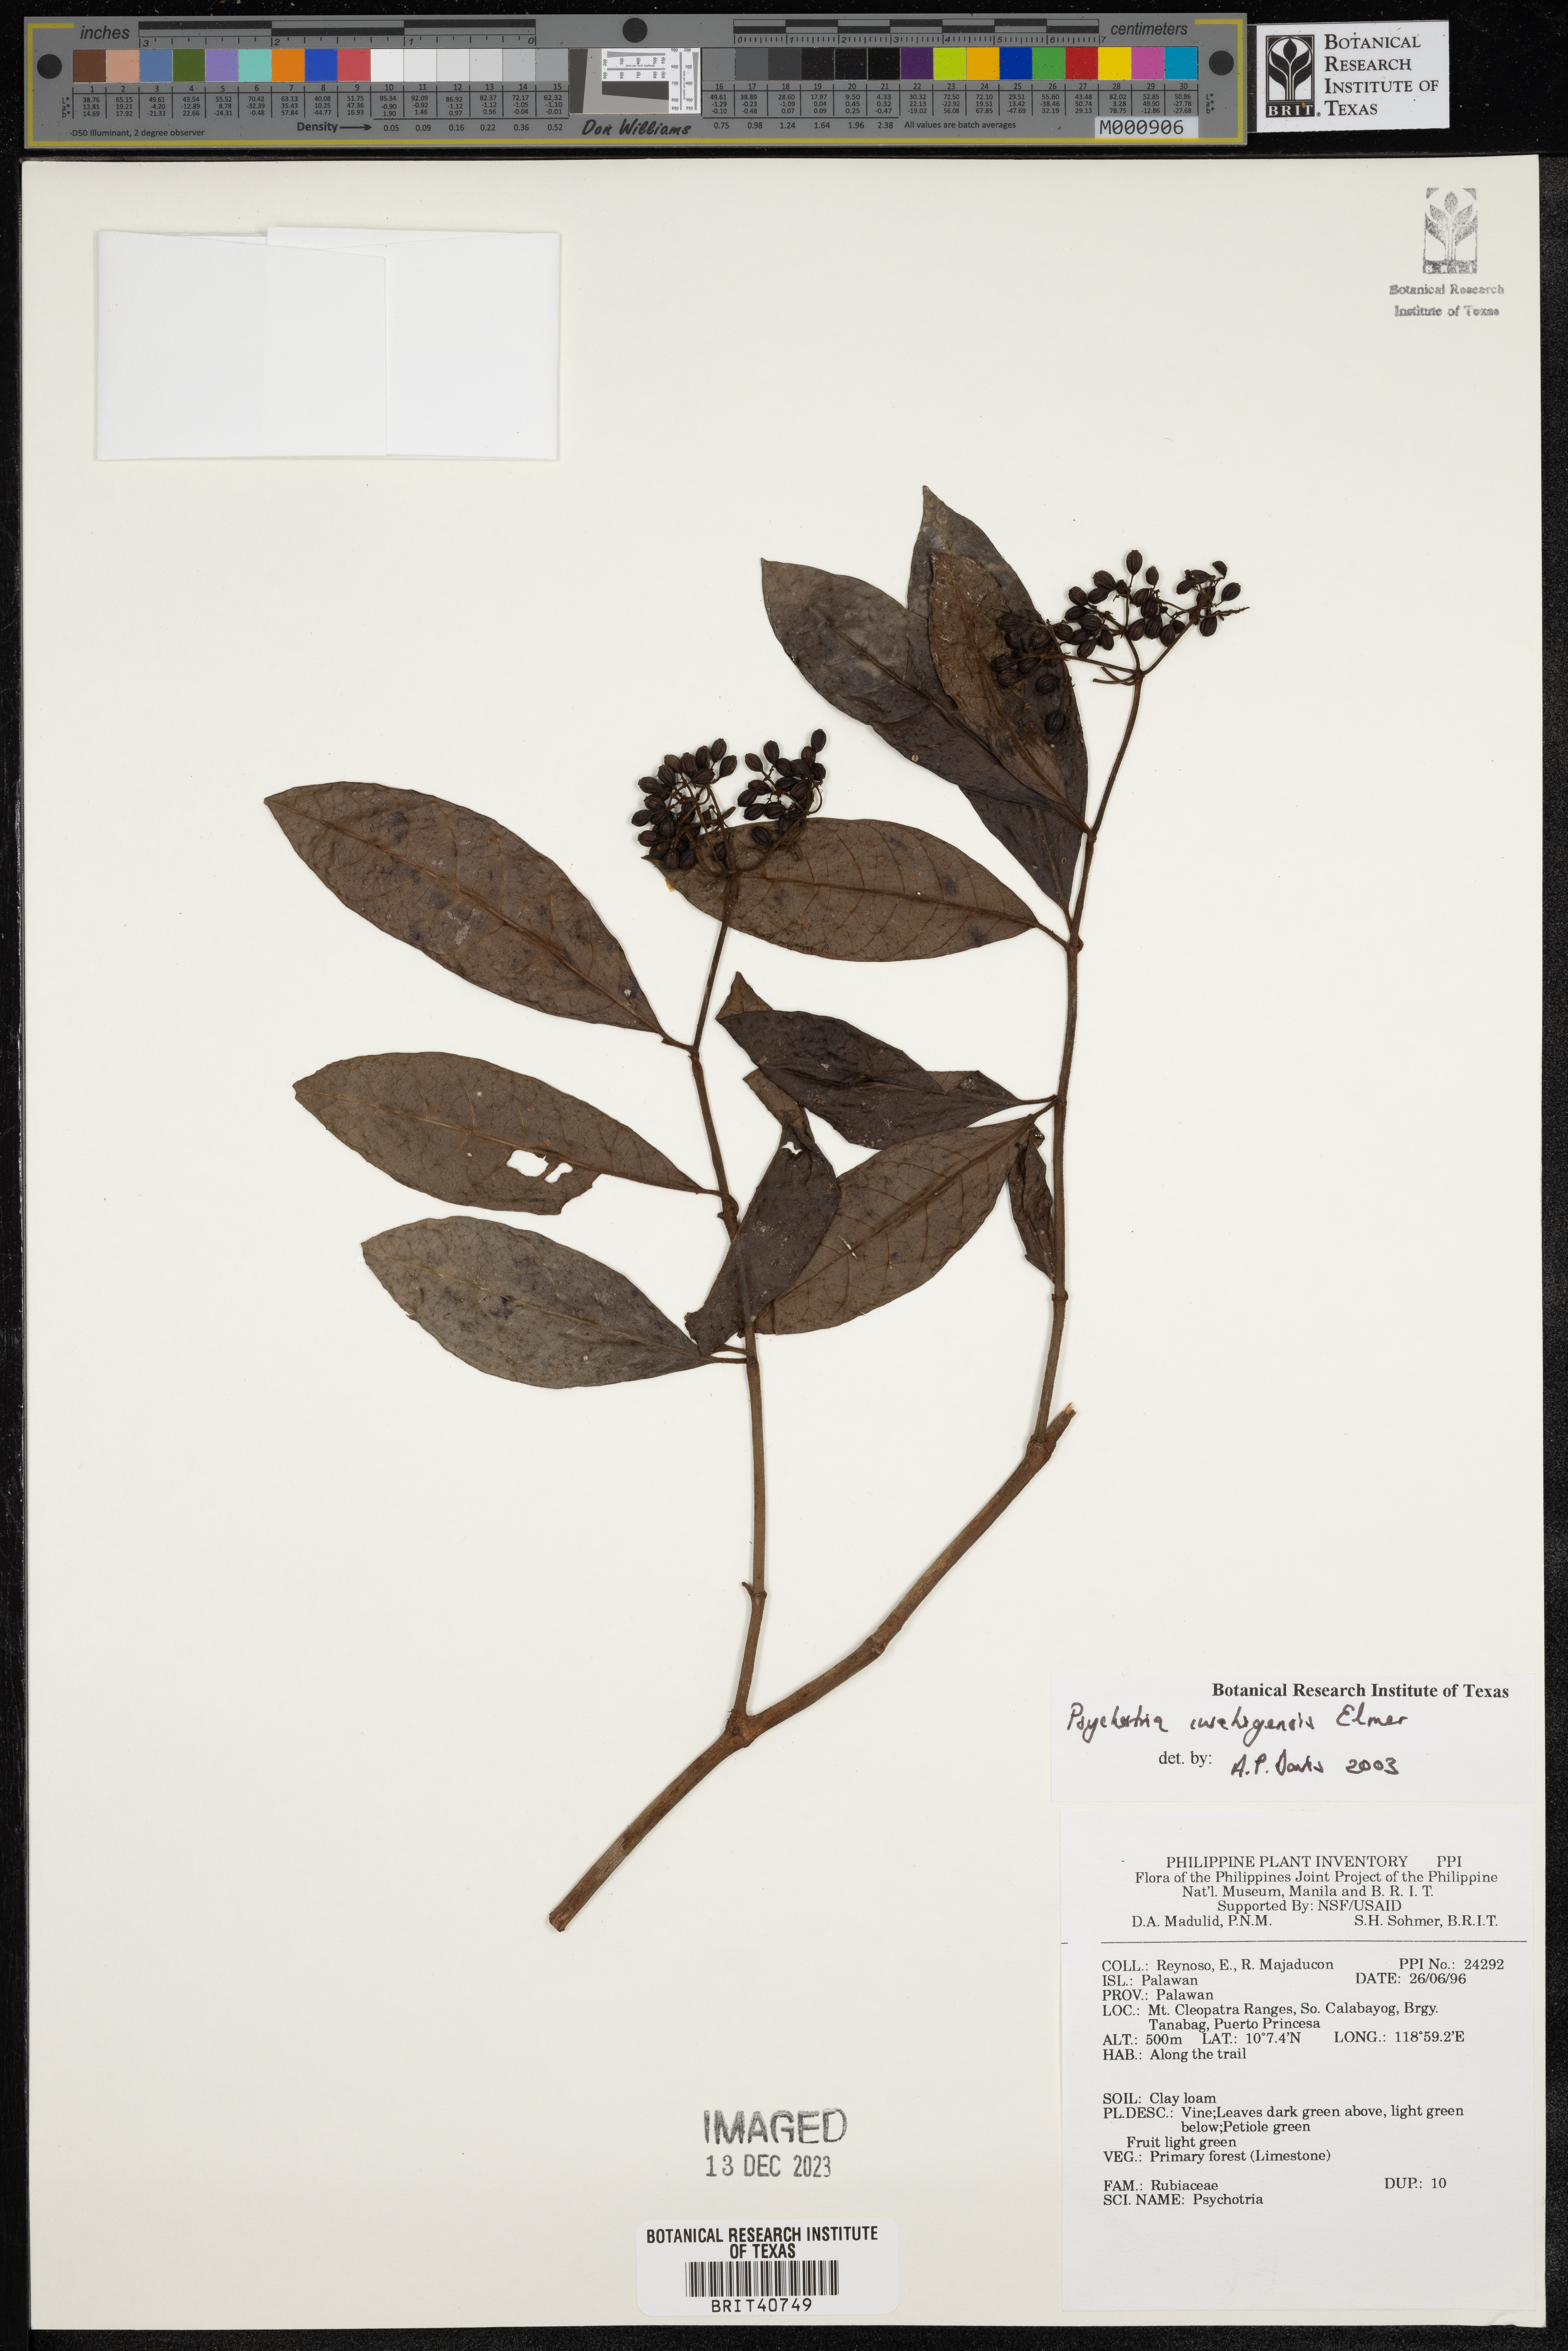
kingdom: Plantae
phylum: Tracheophyta
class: Magnoliopsida
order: Gentianales
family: Rubiaceae
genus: Psychotria
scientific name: Psychotria iwahigensis
